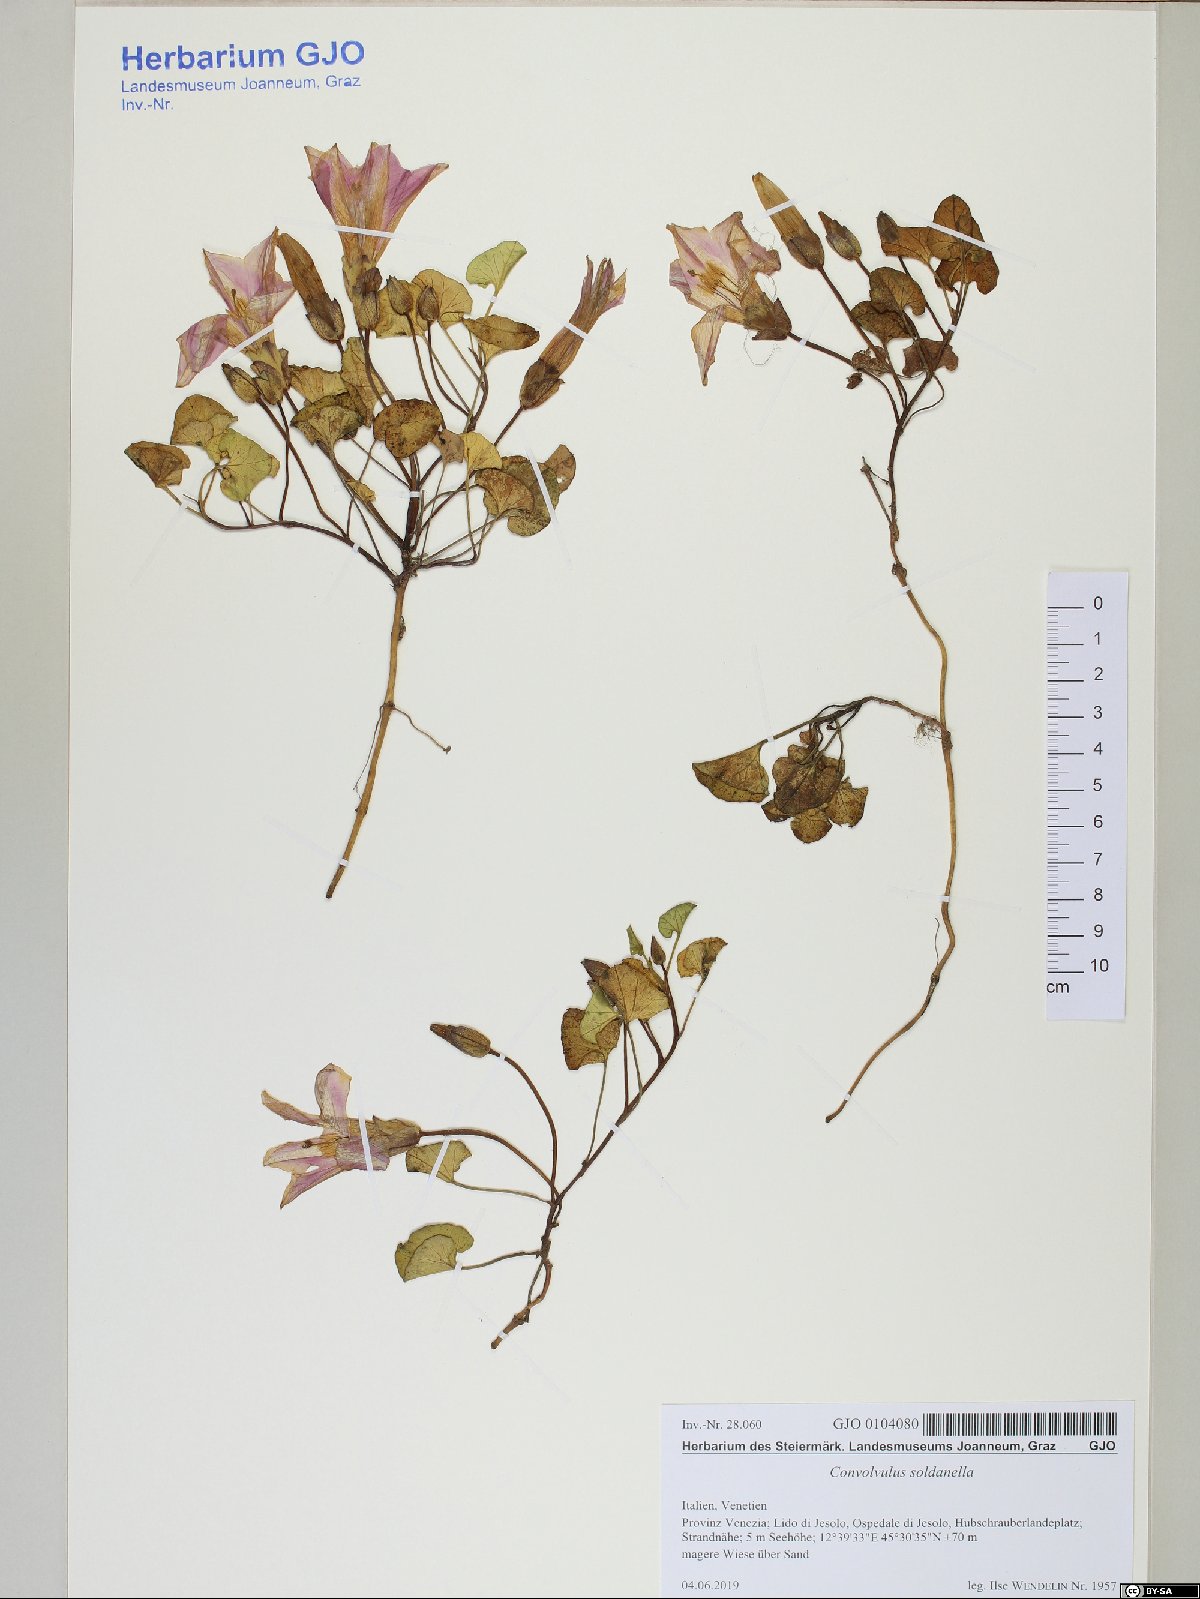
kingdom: Plantae
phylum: Tracheophyta
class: Magnoliopsida
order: Solanales
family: Convolvulaceae
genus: Calystegia
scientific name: Calystegia soldanella
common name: Sea bindweed
